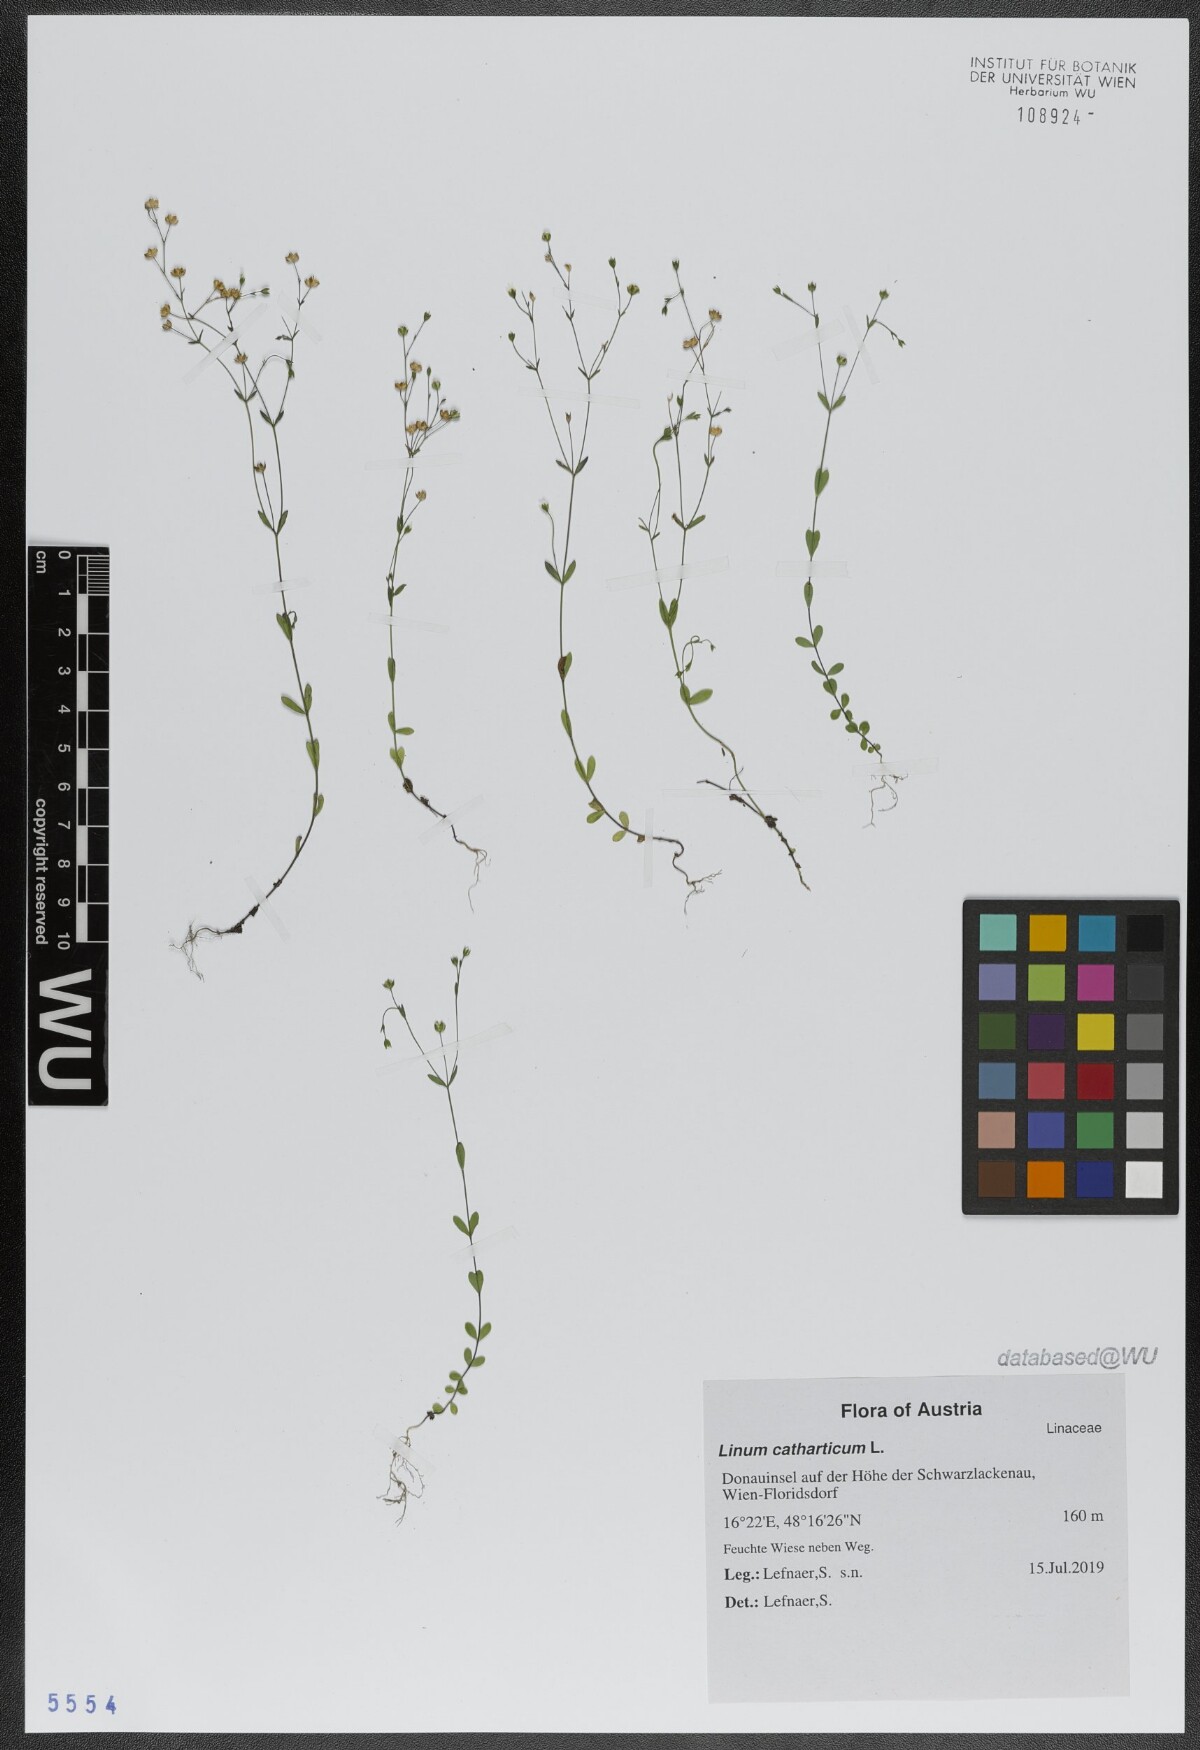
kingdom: Plantae
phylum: Tracheophyta
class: Magnoliopsida
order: Malpighiales
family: Linaceae
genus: Linum
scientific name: Linum catharticum
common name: Fairy flax
